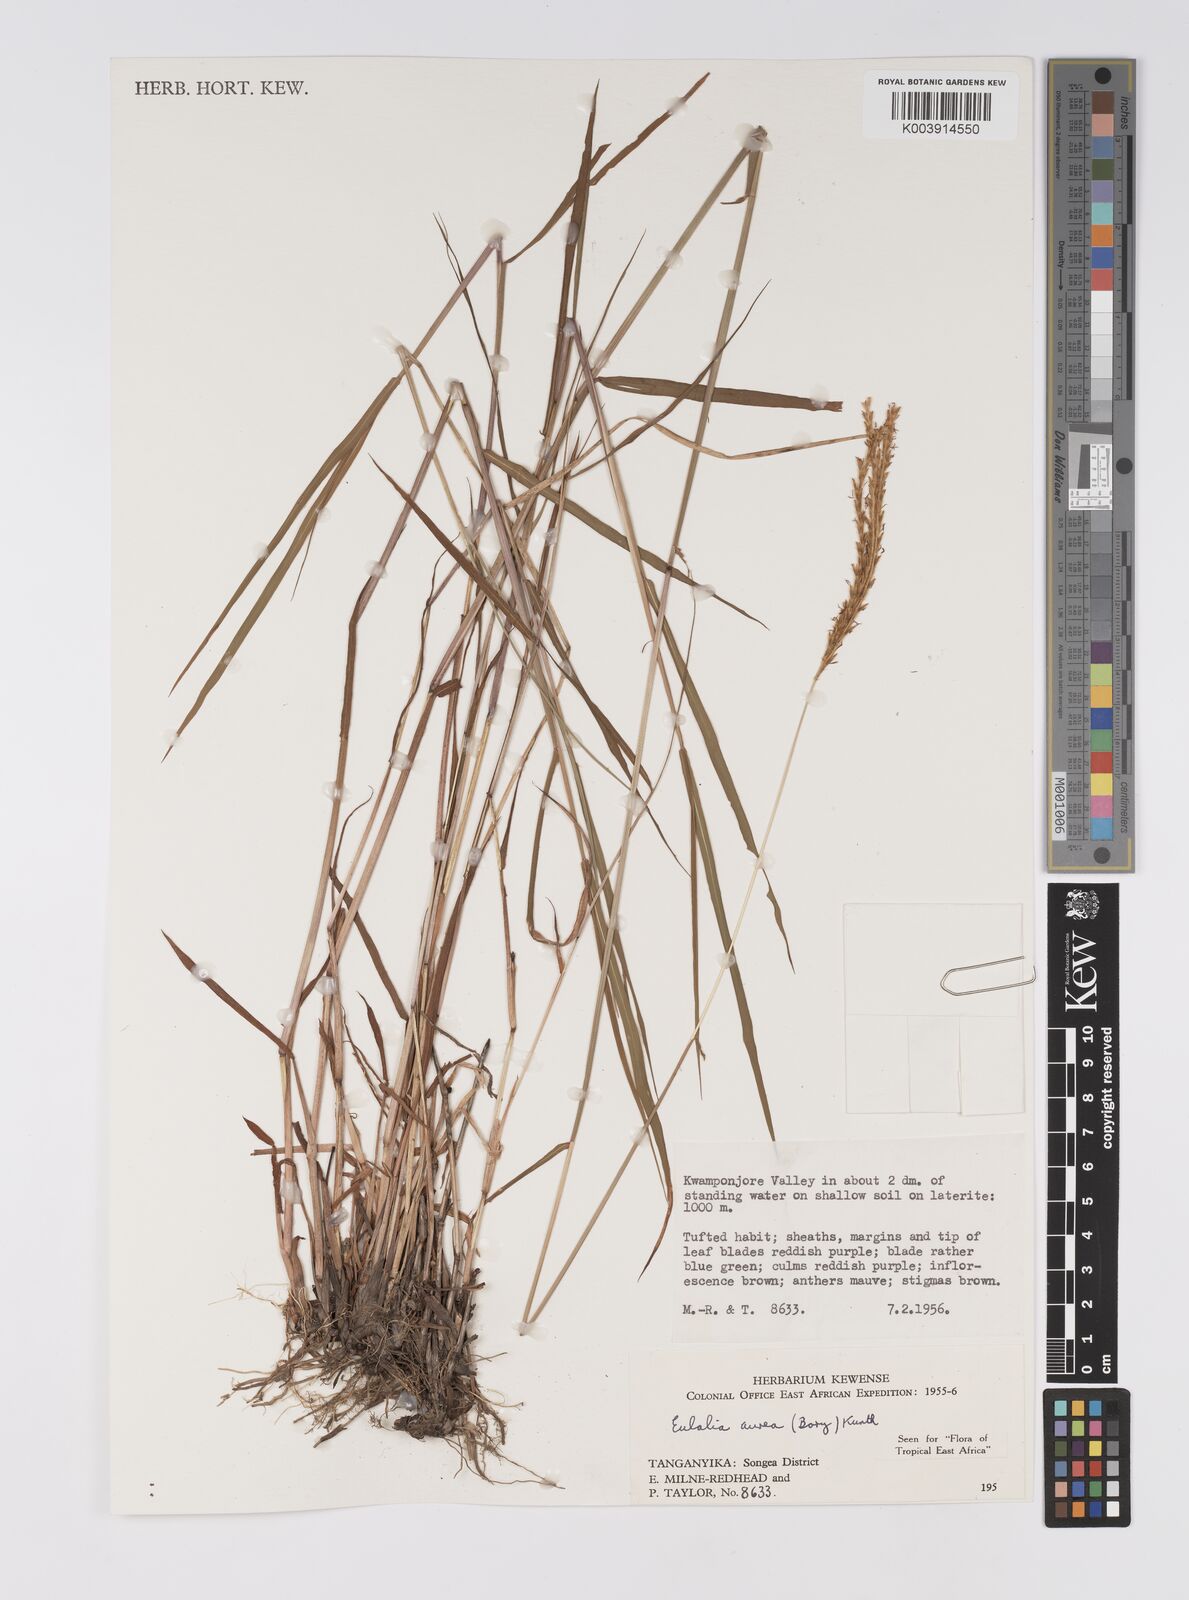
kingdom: Plantae
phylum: Tracheophyta
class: Liliopsida
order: Poales
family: Poaceae
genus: Eulalia
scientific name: Eulalia aurea
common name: Silky browntop
